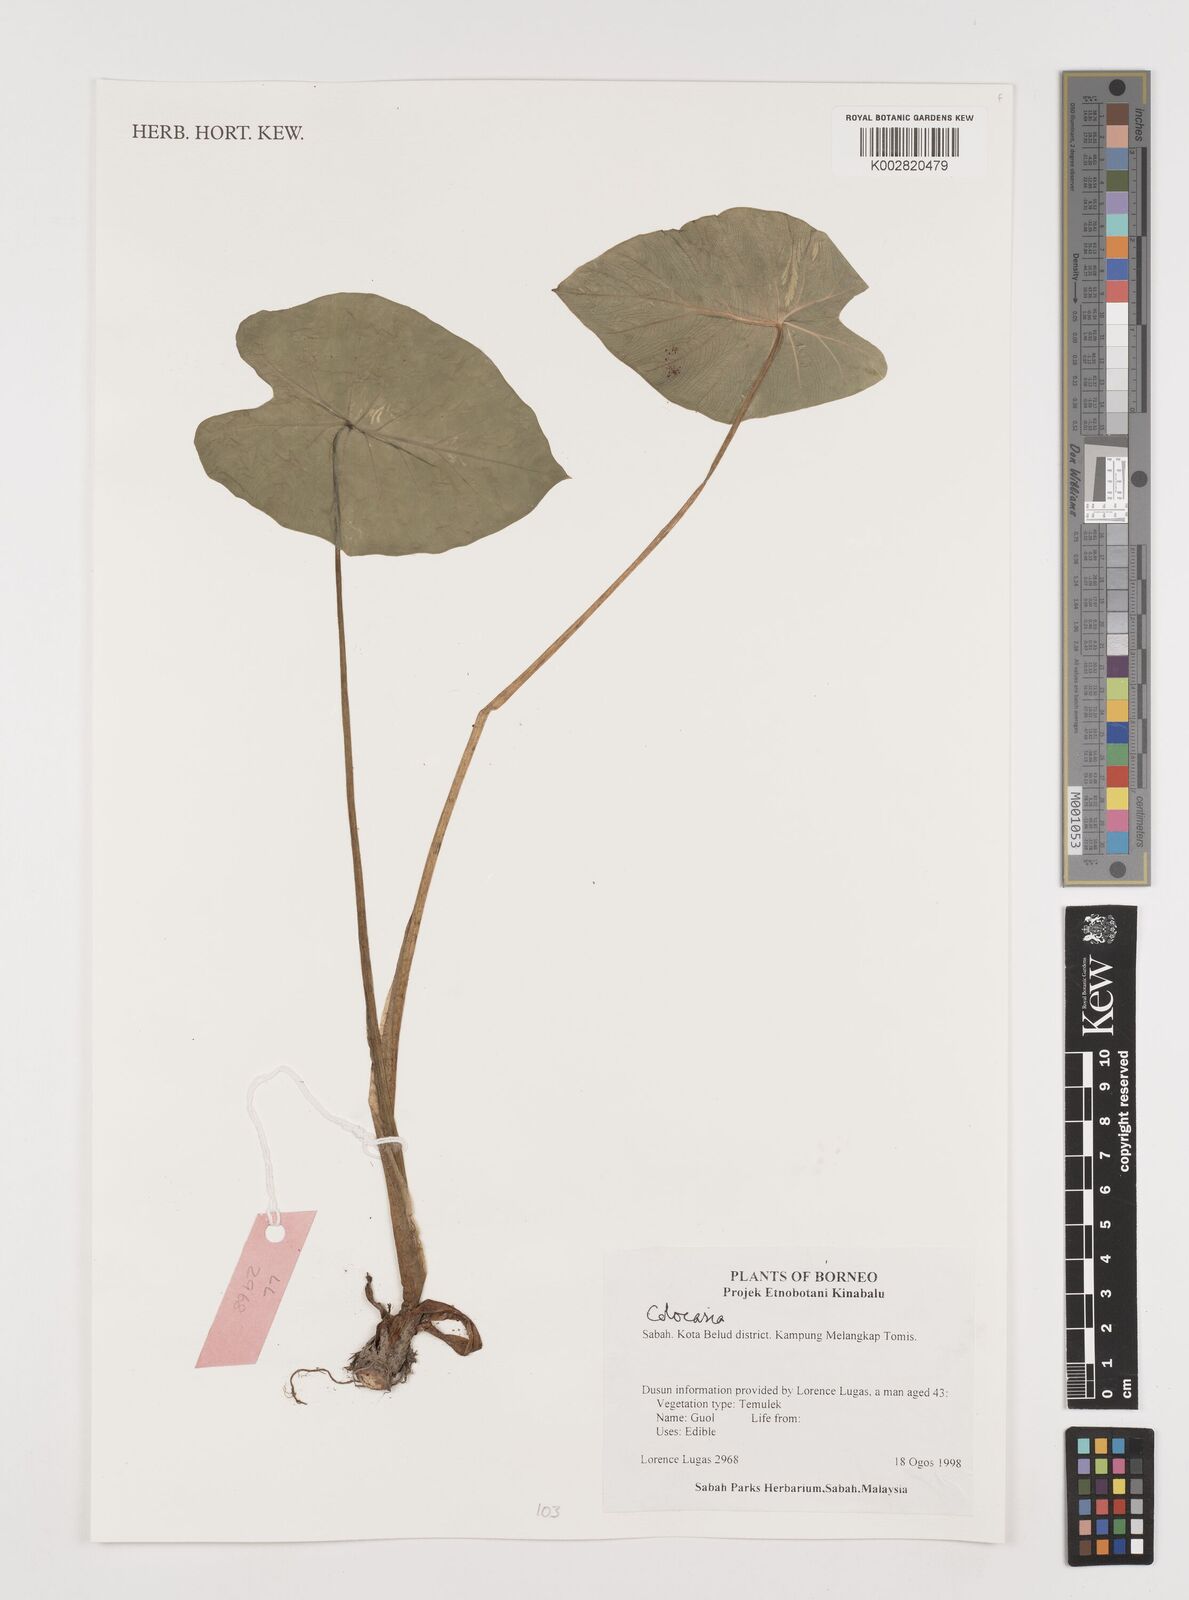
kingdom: Plantae
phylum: Tracheophyta
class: Liliopsida
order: Alismatales
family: Araceae
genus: Colocasia
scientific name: Colocasia
